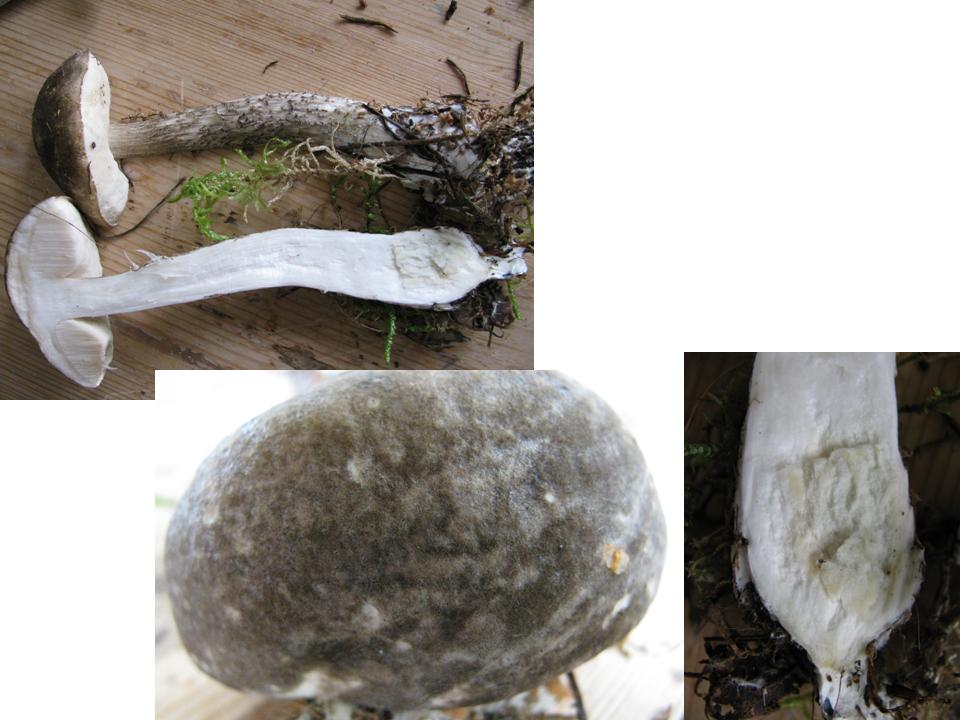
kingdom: Fungi
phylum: Basidiomycota
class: Agaricomycetes
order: Boletales
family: Boletaceae
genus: Leccinum
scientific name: Leccinum variicolor
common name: flammet skælrørhat
